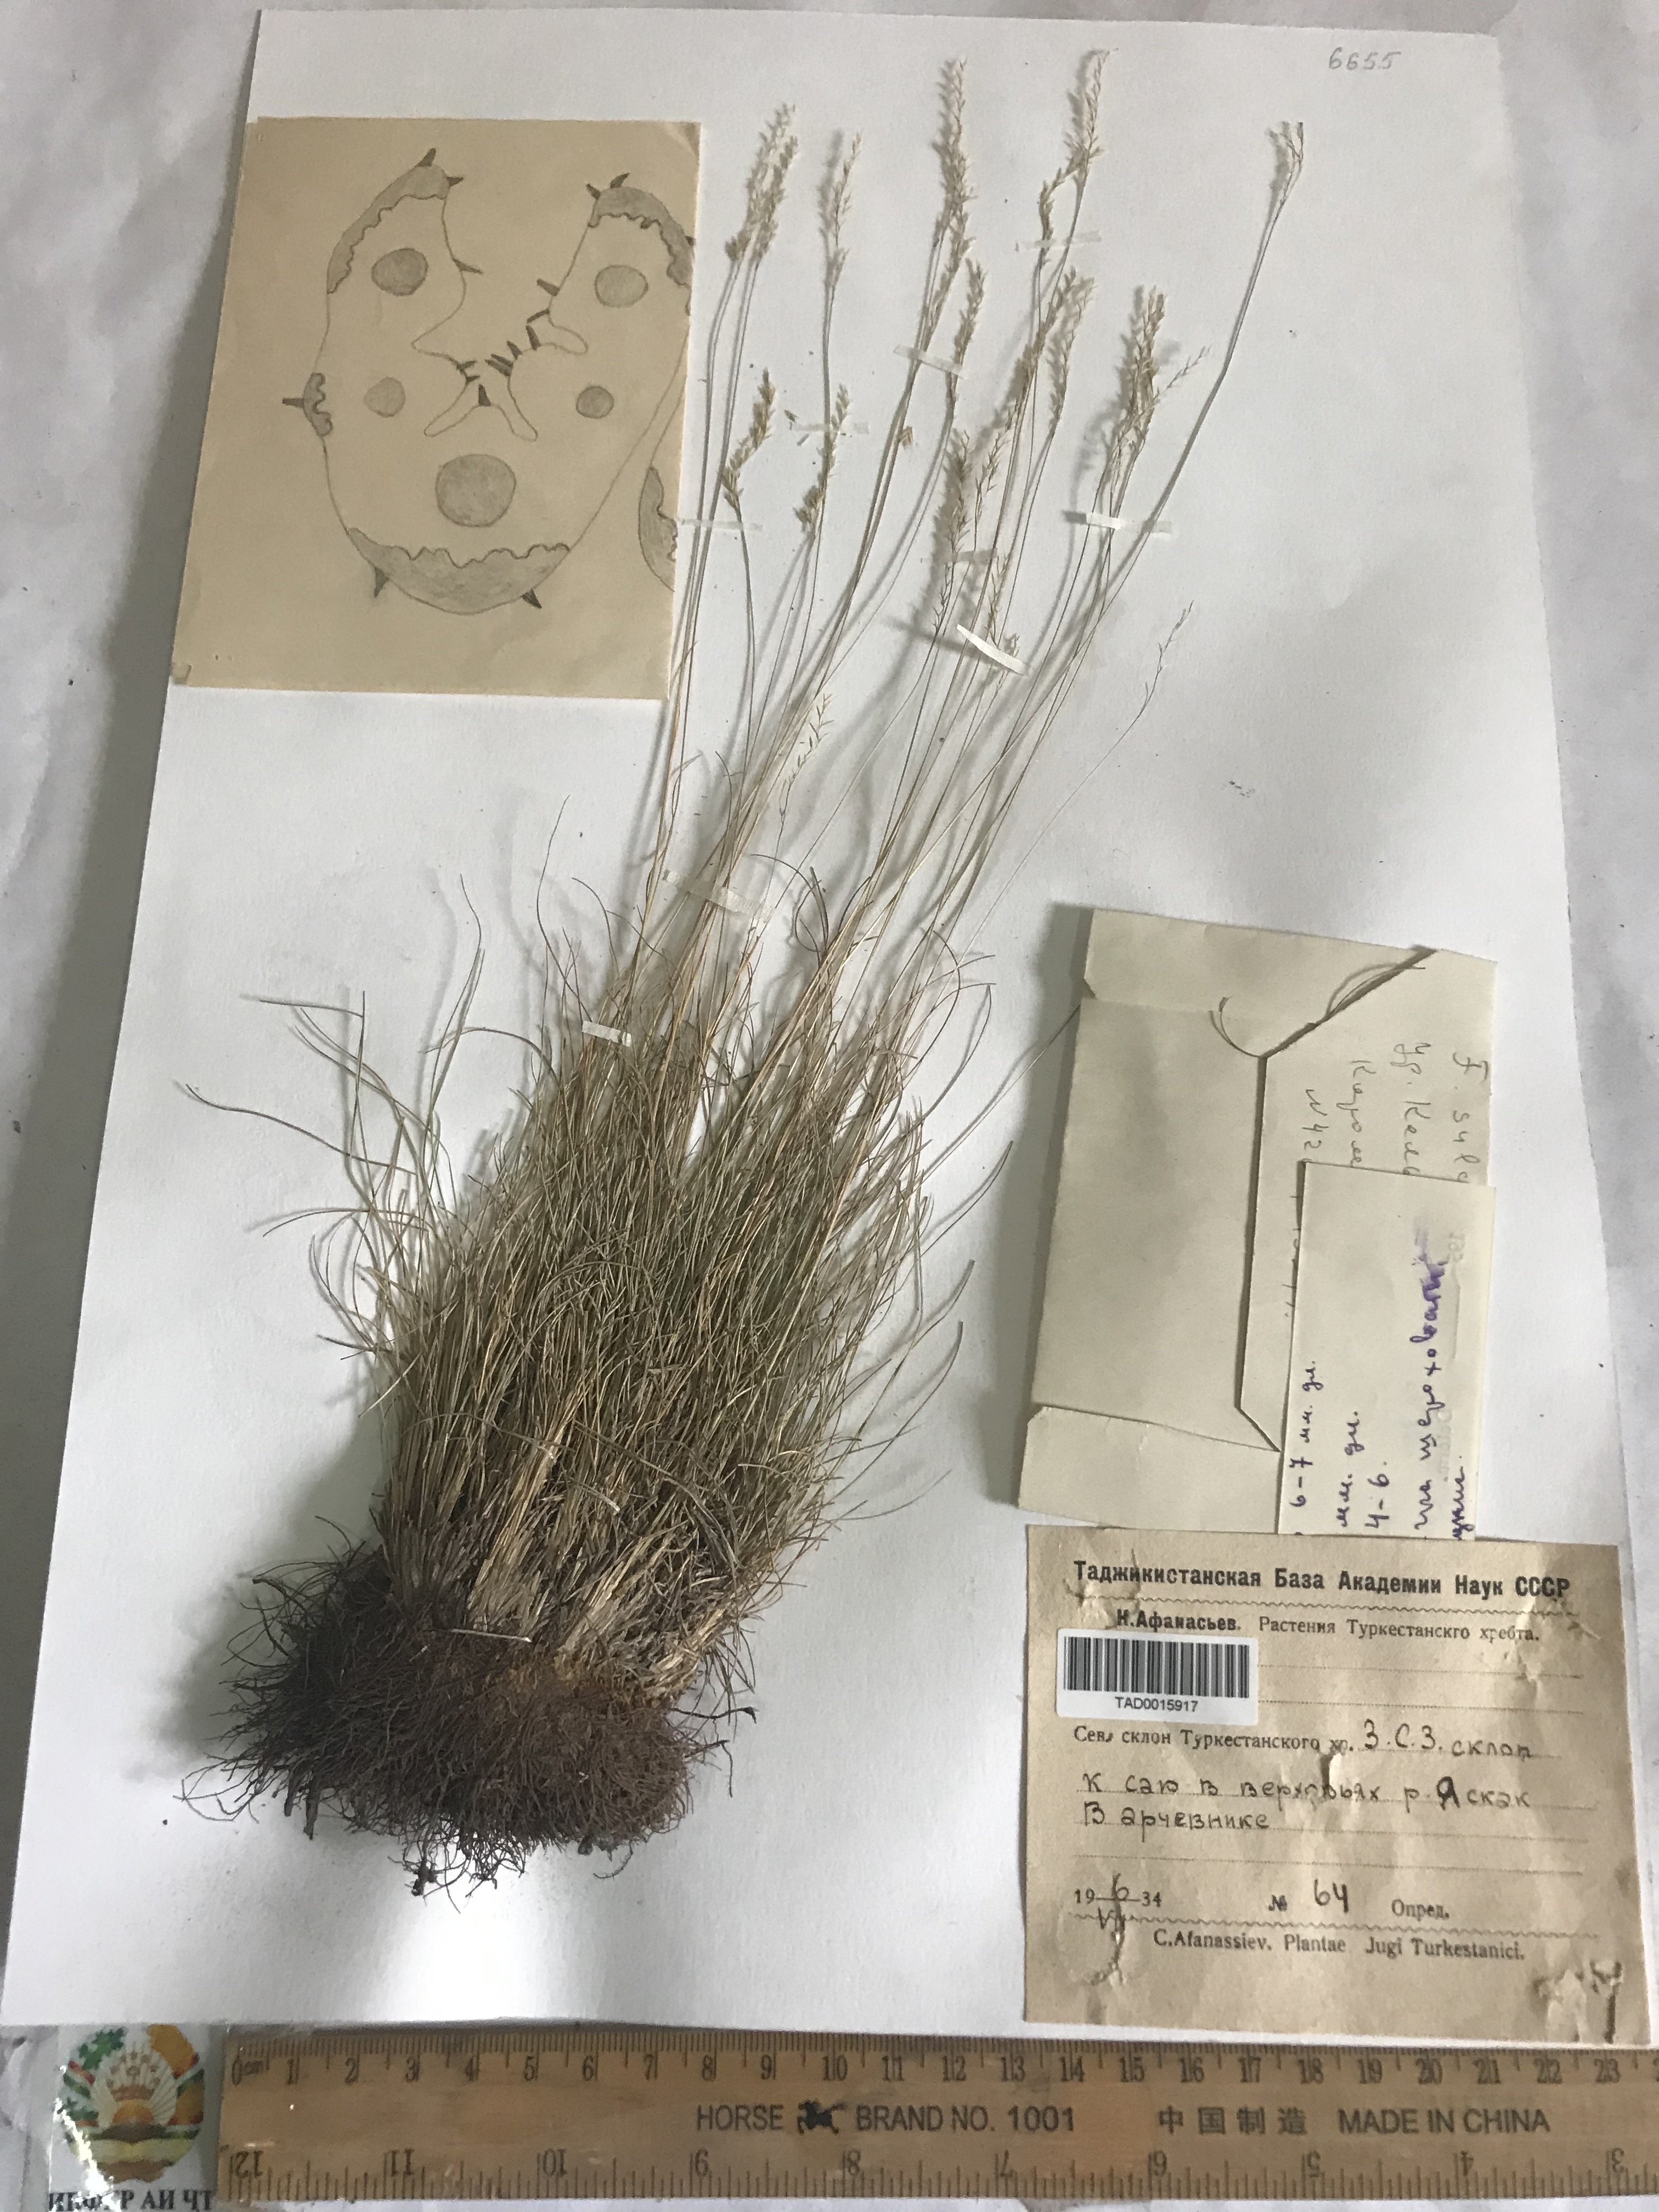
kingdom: Plantae
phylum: Tracheophyta
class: Liliopsida
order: Poales
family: Poaceae
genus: Festuca
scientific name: Festuca sulcata
